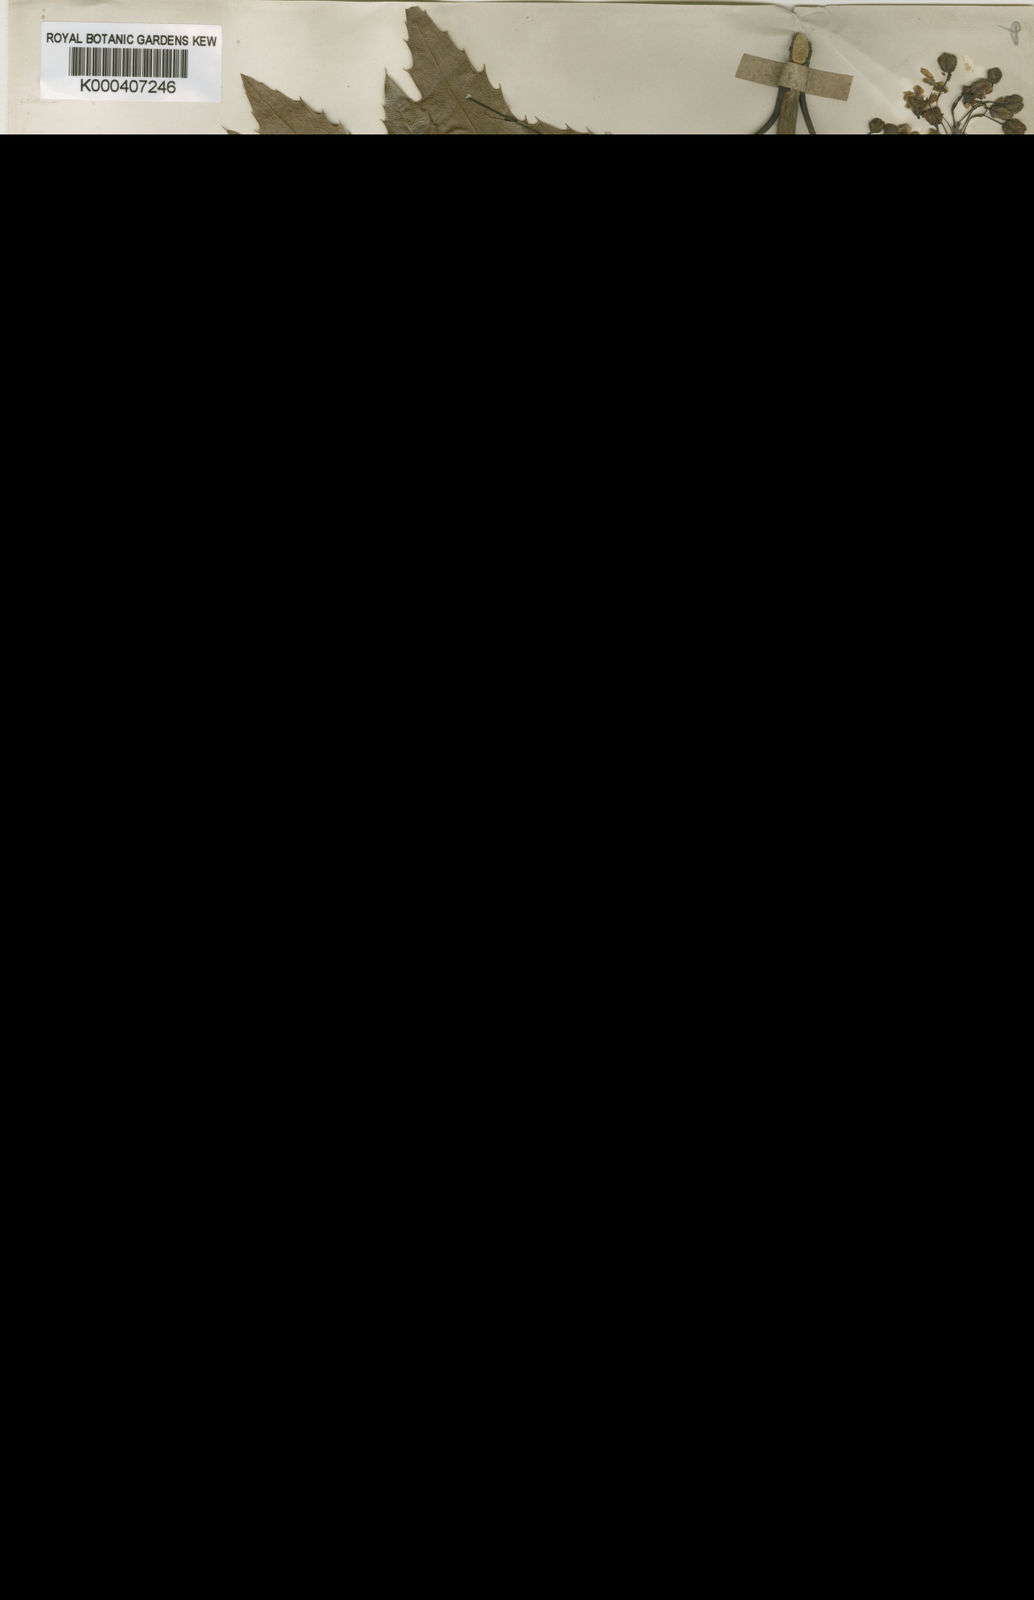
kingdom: Plantae
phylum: Tracheophyta
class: Magnoliopsida
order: Ranunculales
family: Berberidaceae
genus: Mahonia
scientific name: Mahonia moranensis
